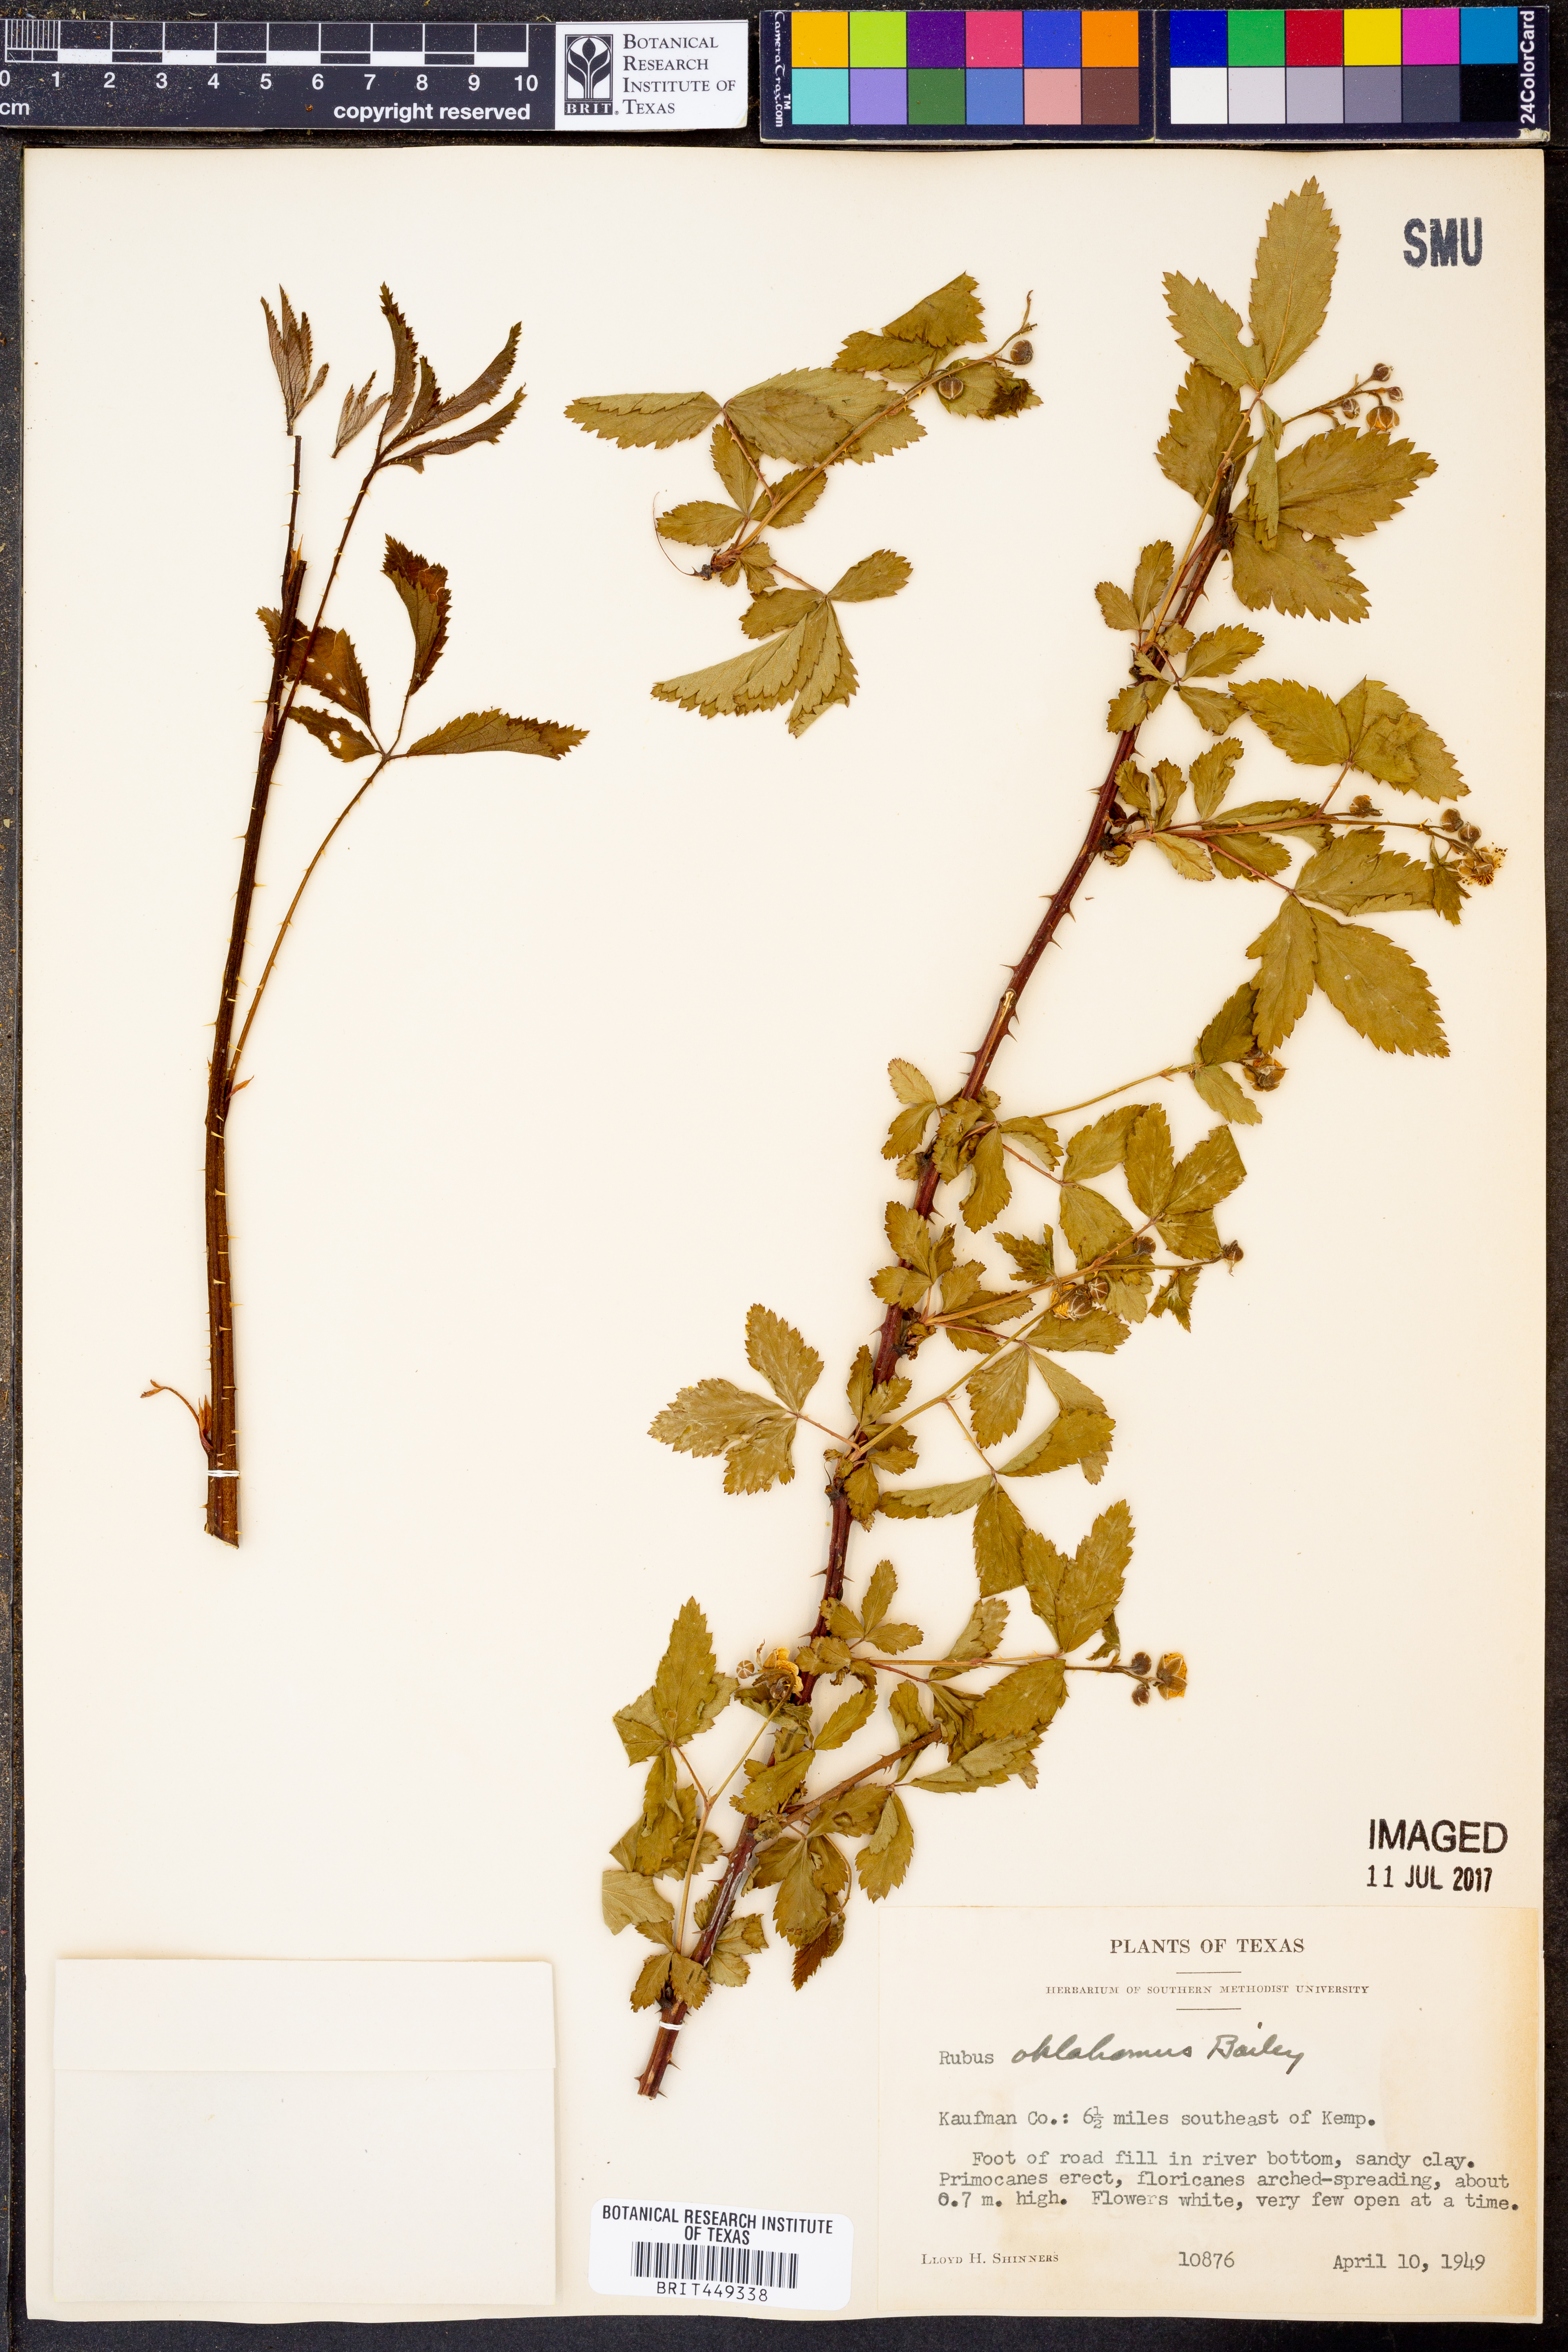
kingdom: Plantae
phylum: Tracheophyta
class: Magnoliopsida
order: Rosales
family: Rosaceae
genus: Rubus
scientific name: Rubus oklahomus
